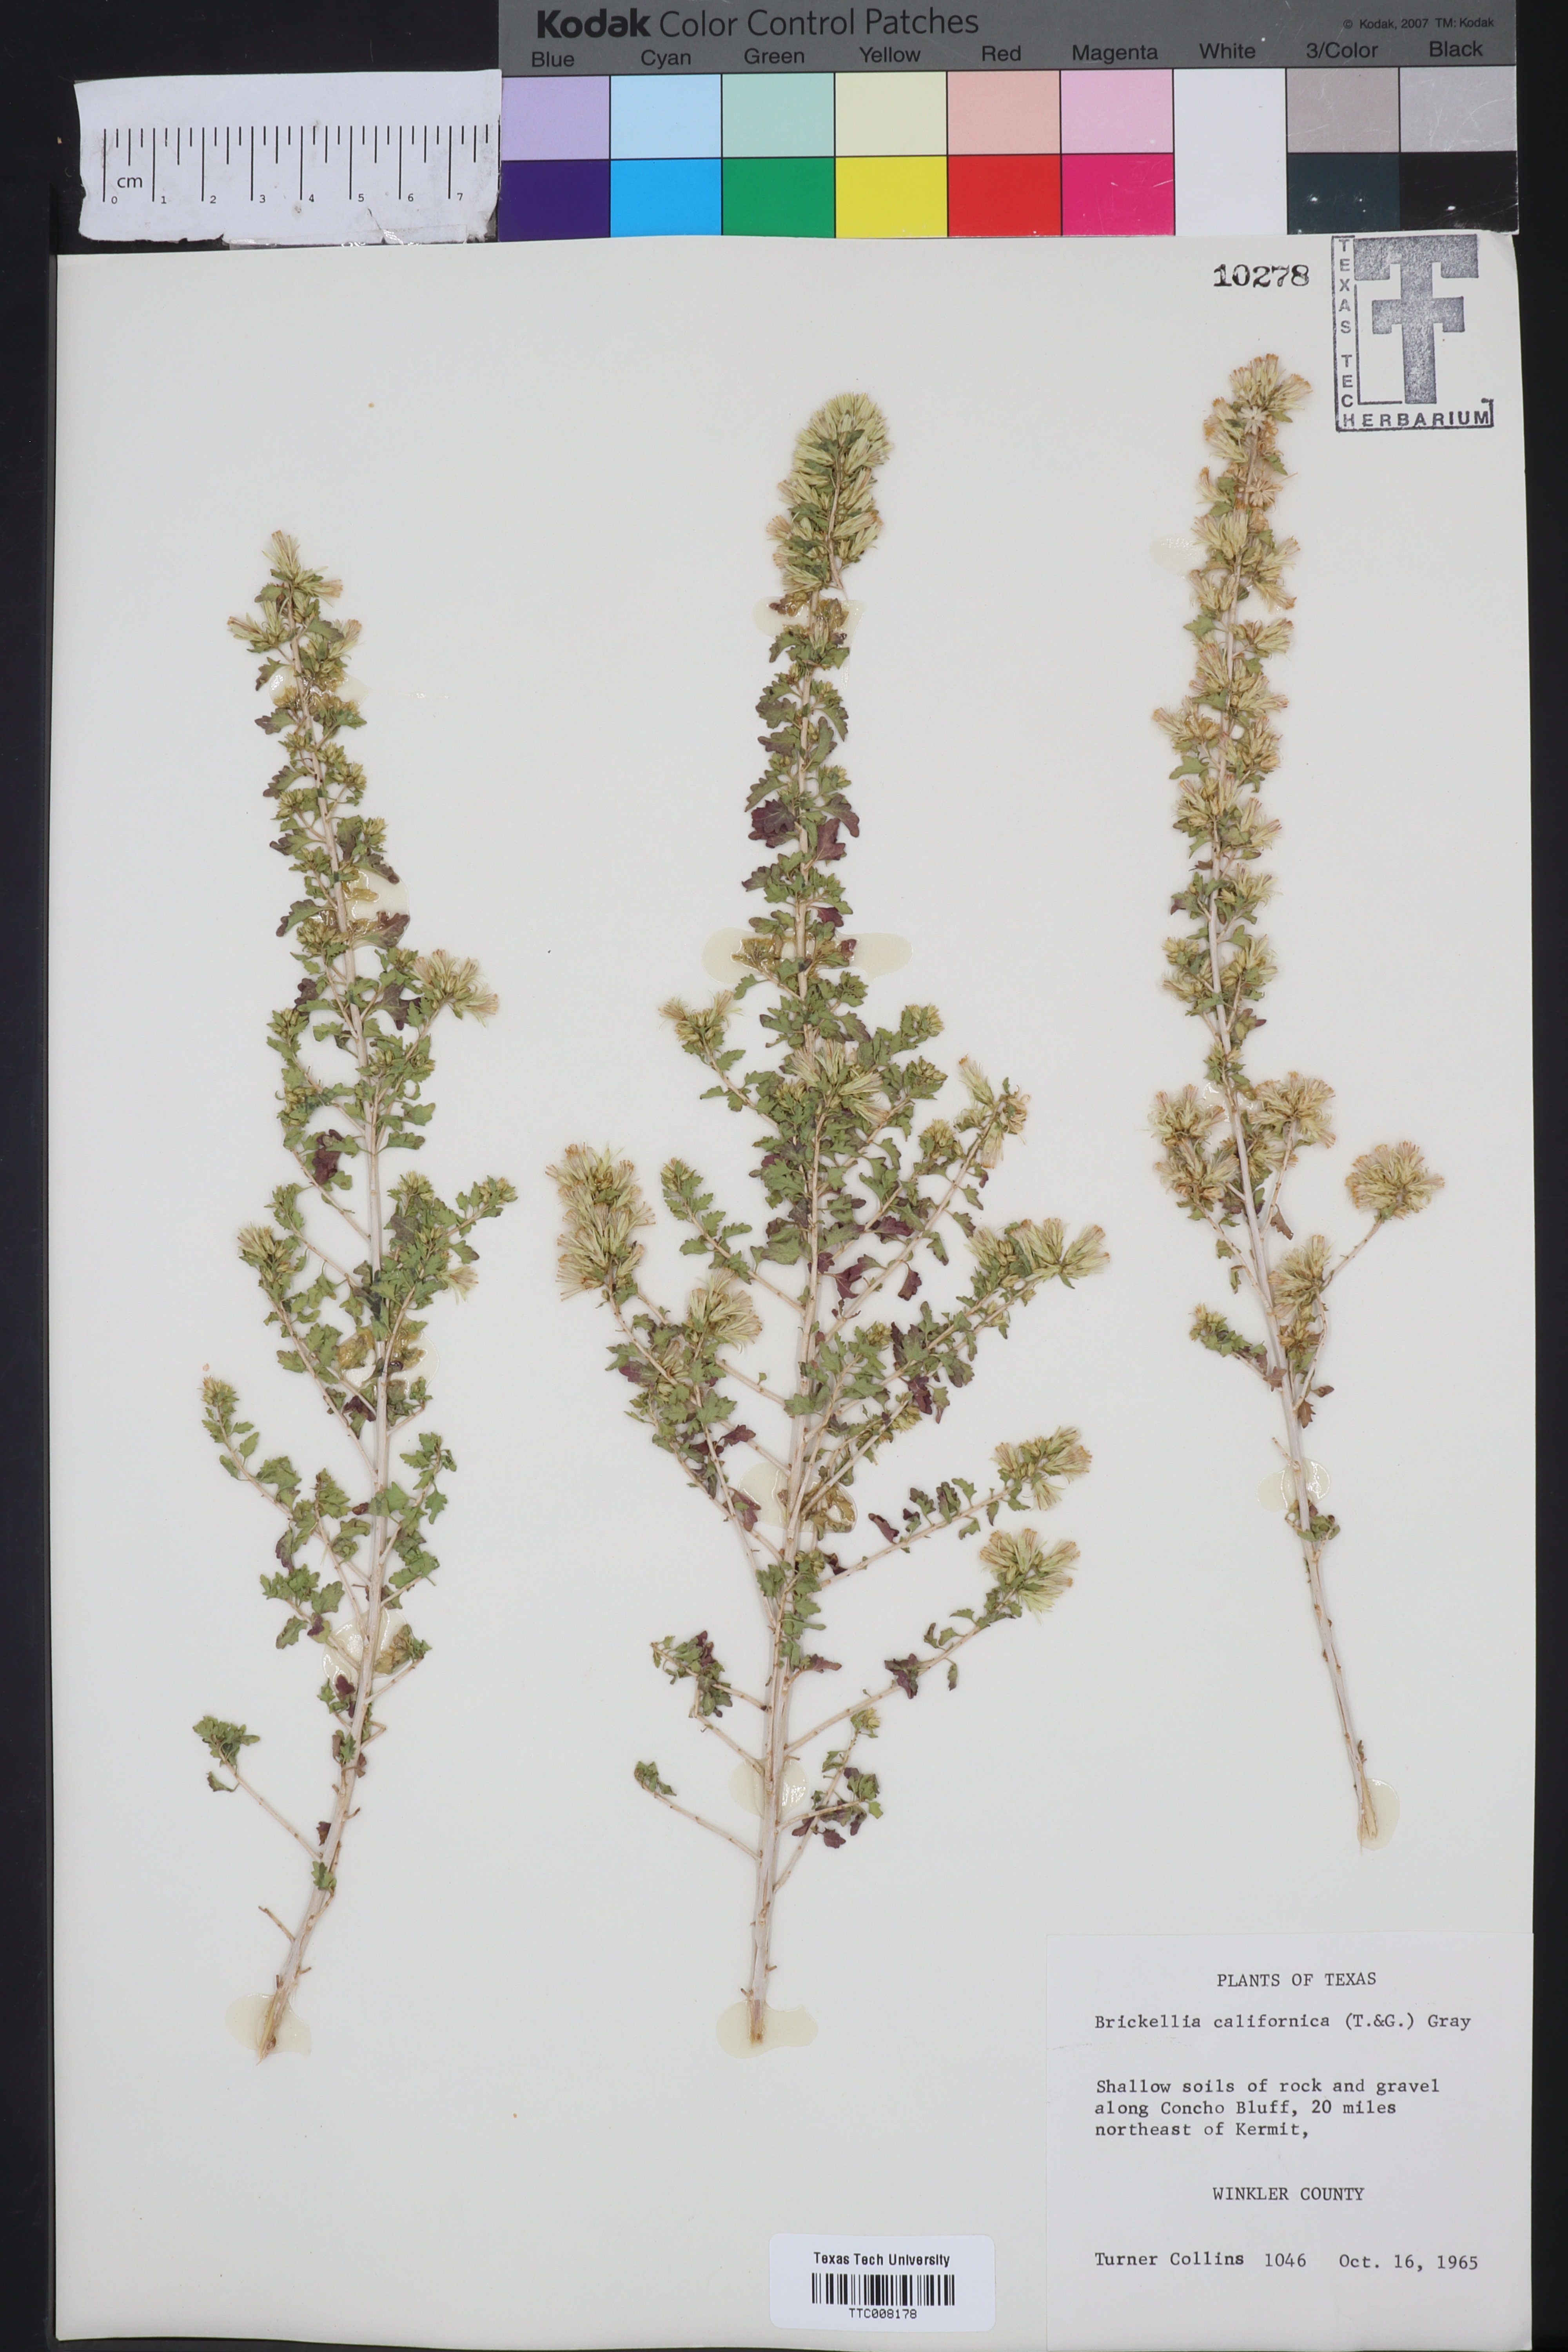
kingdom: Plantae
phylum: Tracheophyta
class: Magnoliopsida
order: Asterales
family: Asteraceae
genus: Brickellia
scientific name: Brickellia californica
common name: California brickellbush
